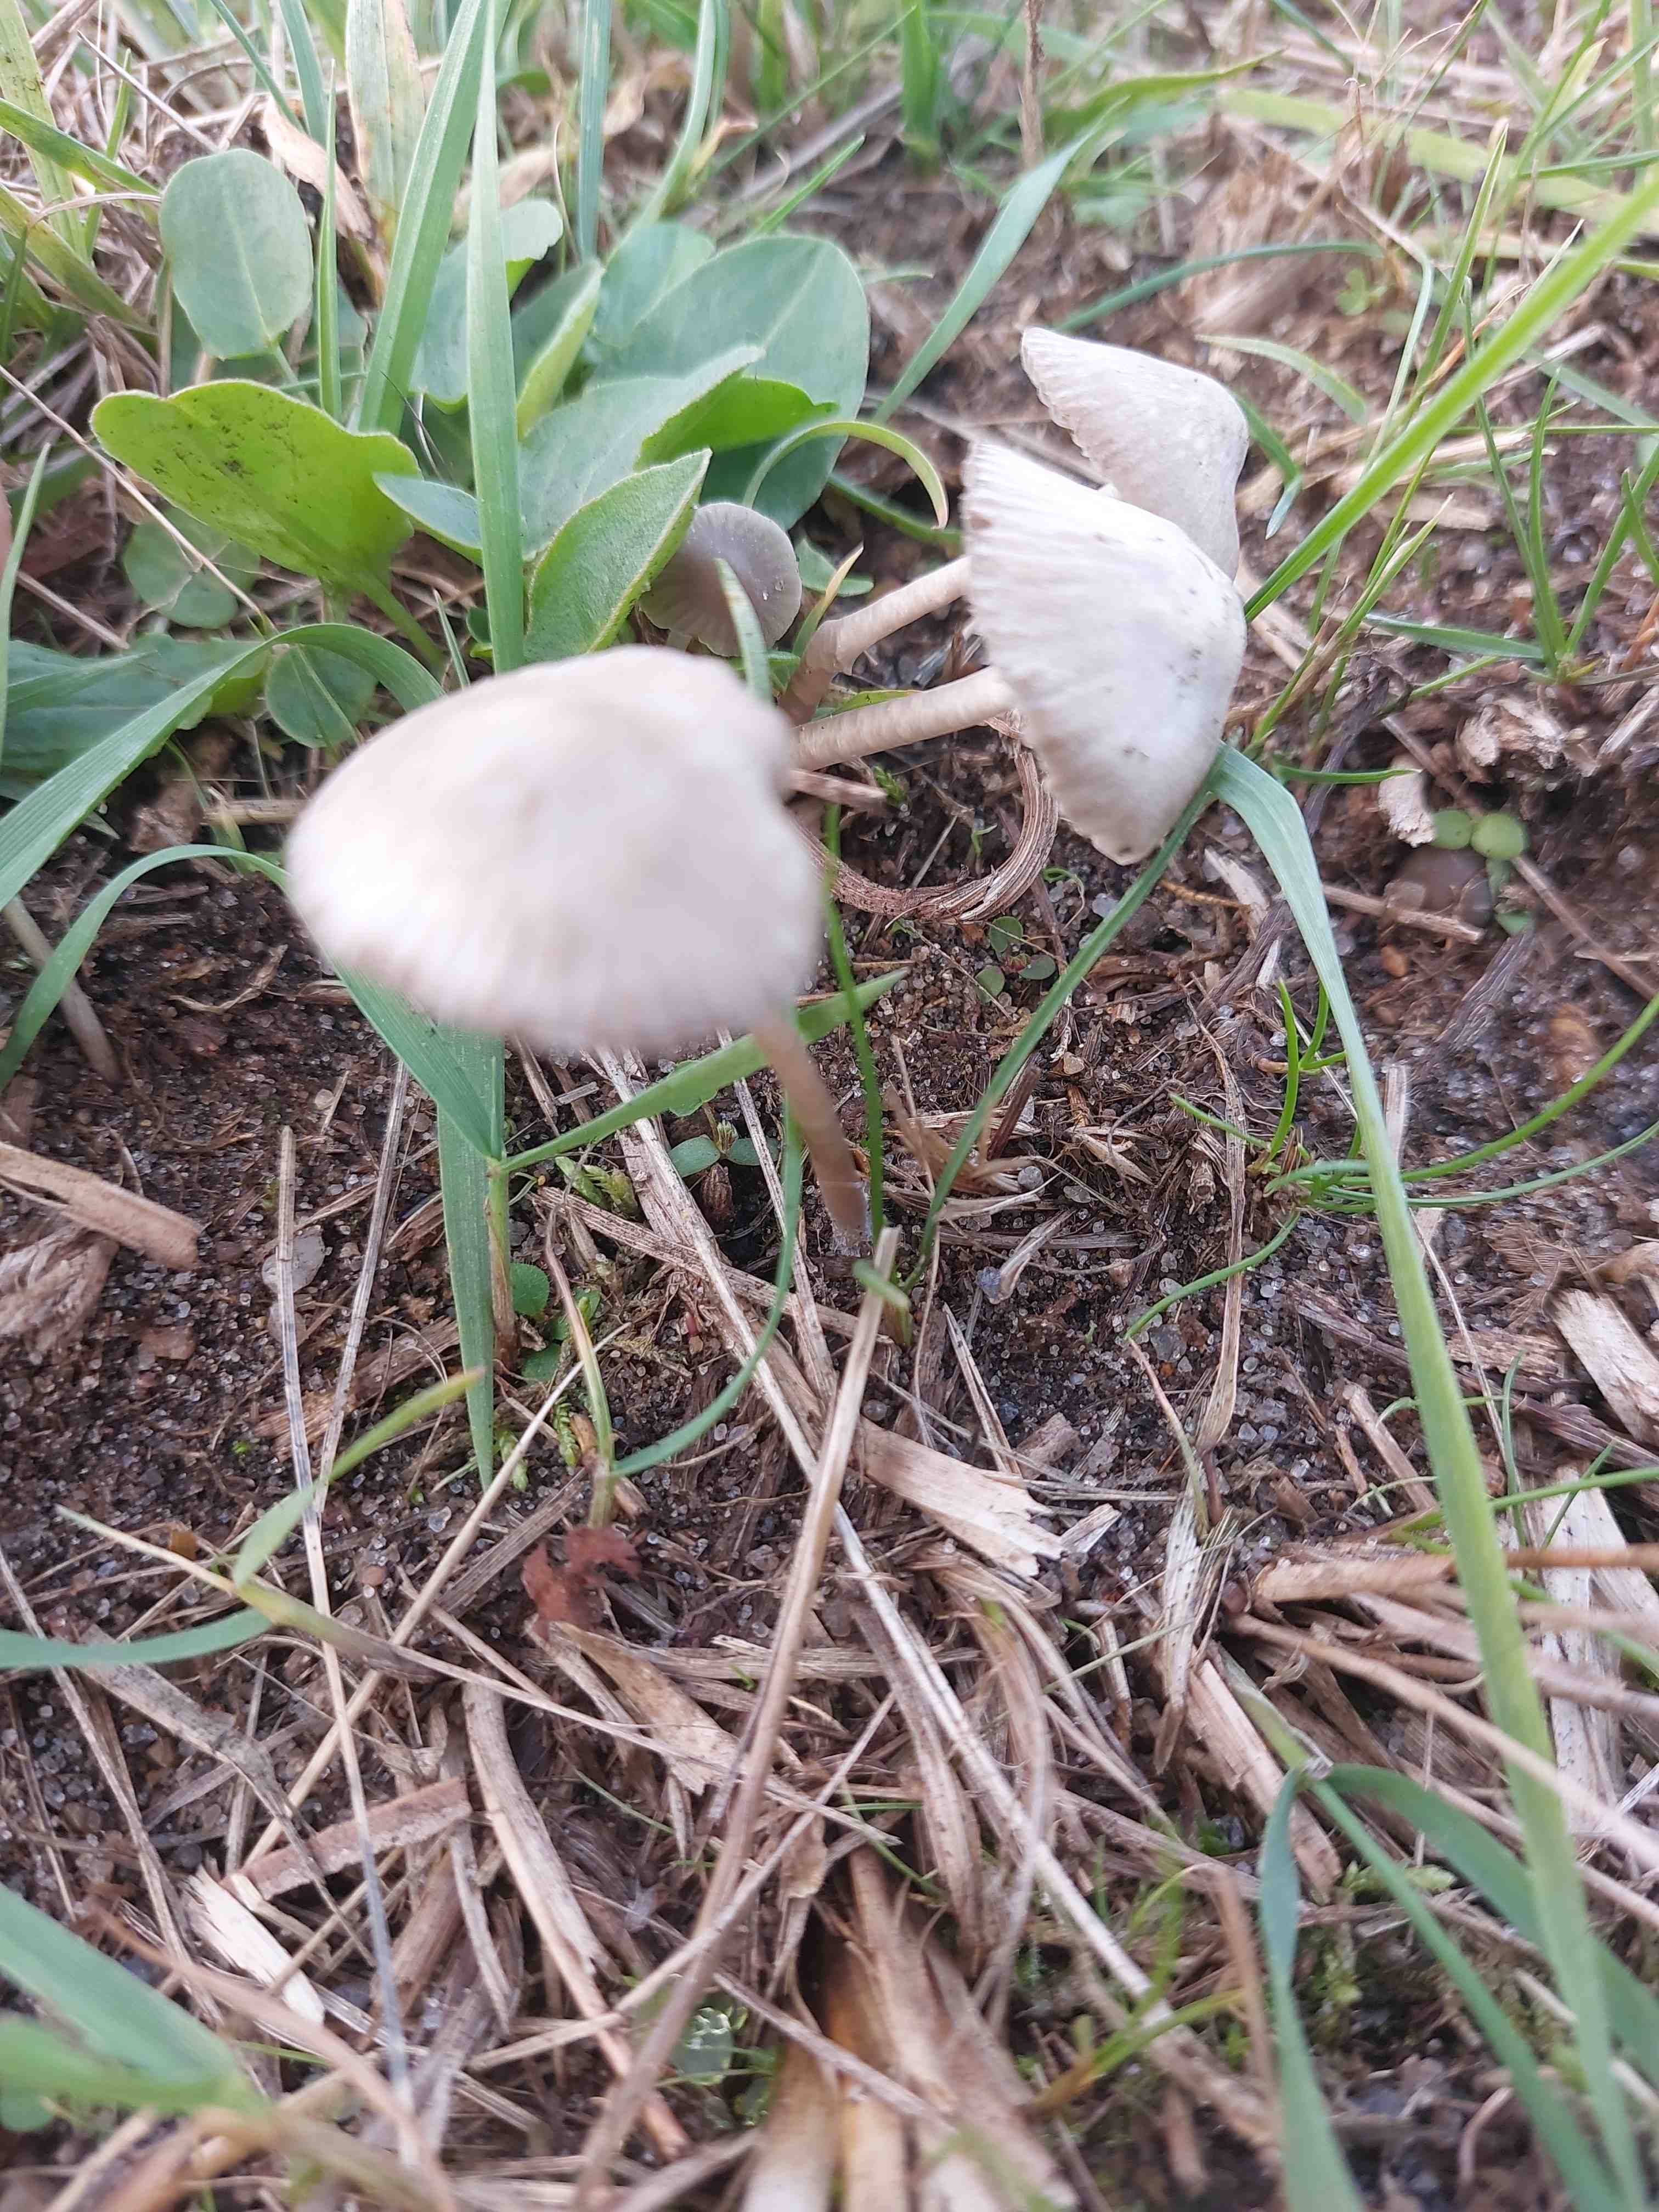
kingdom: Fungi
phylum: Basidiomycota
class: Agaricomycetes
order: Agaricales
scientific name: Agaricales
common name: champignonordenen
